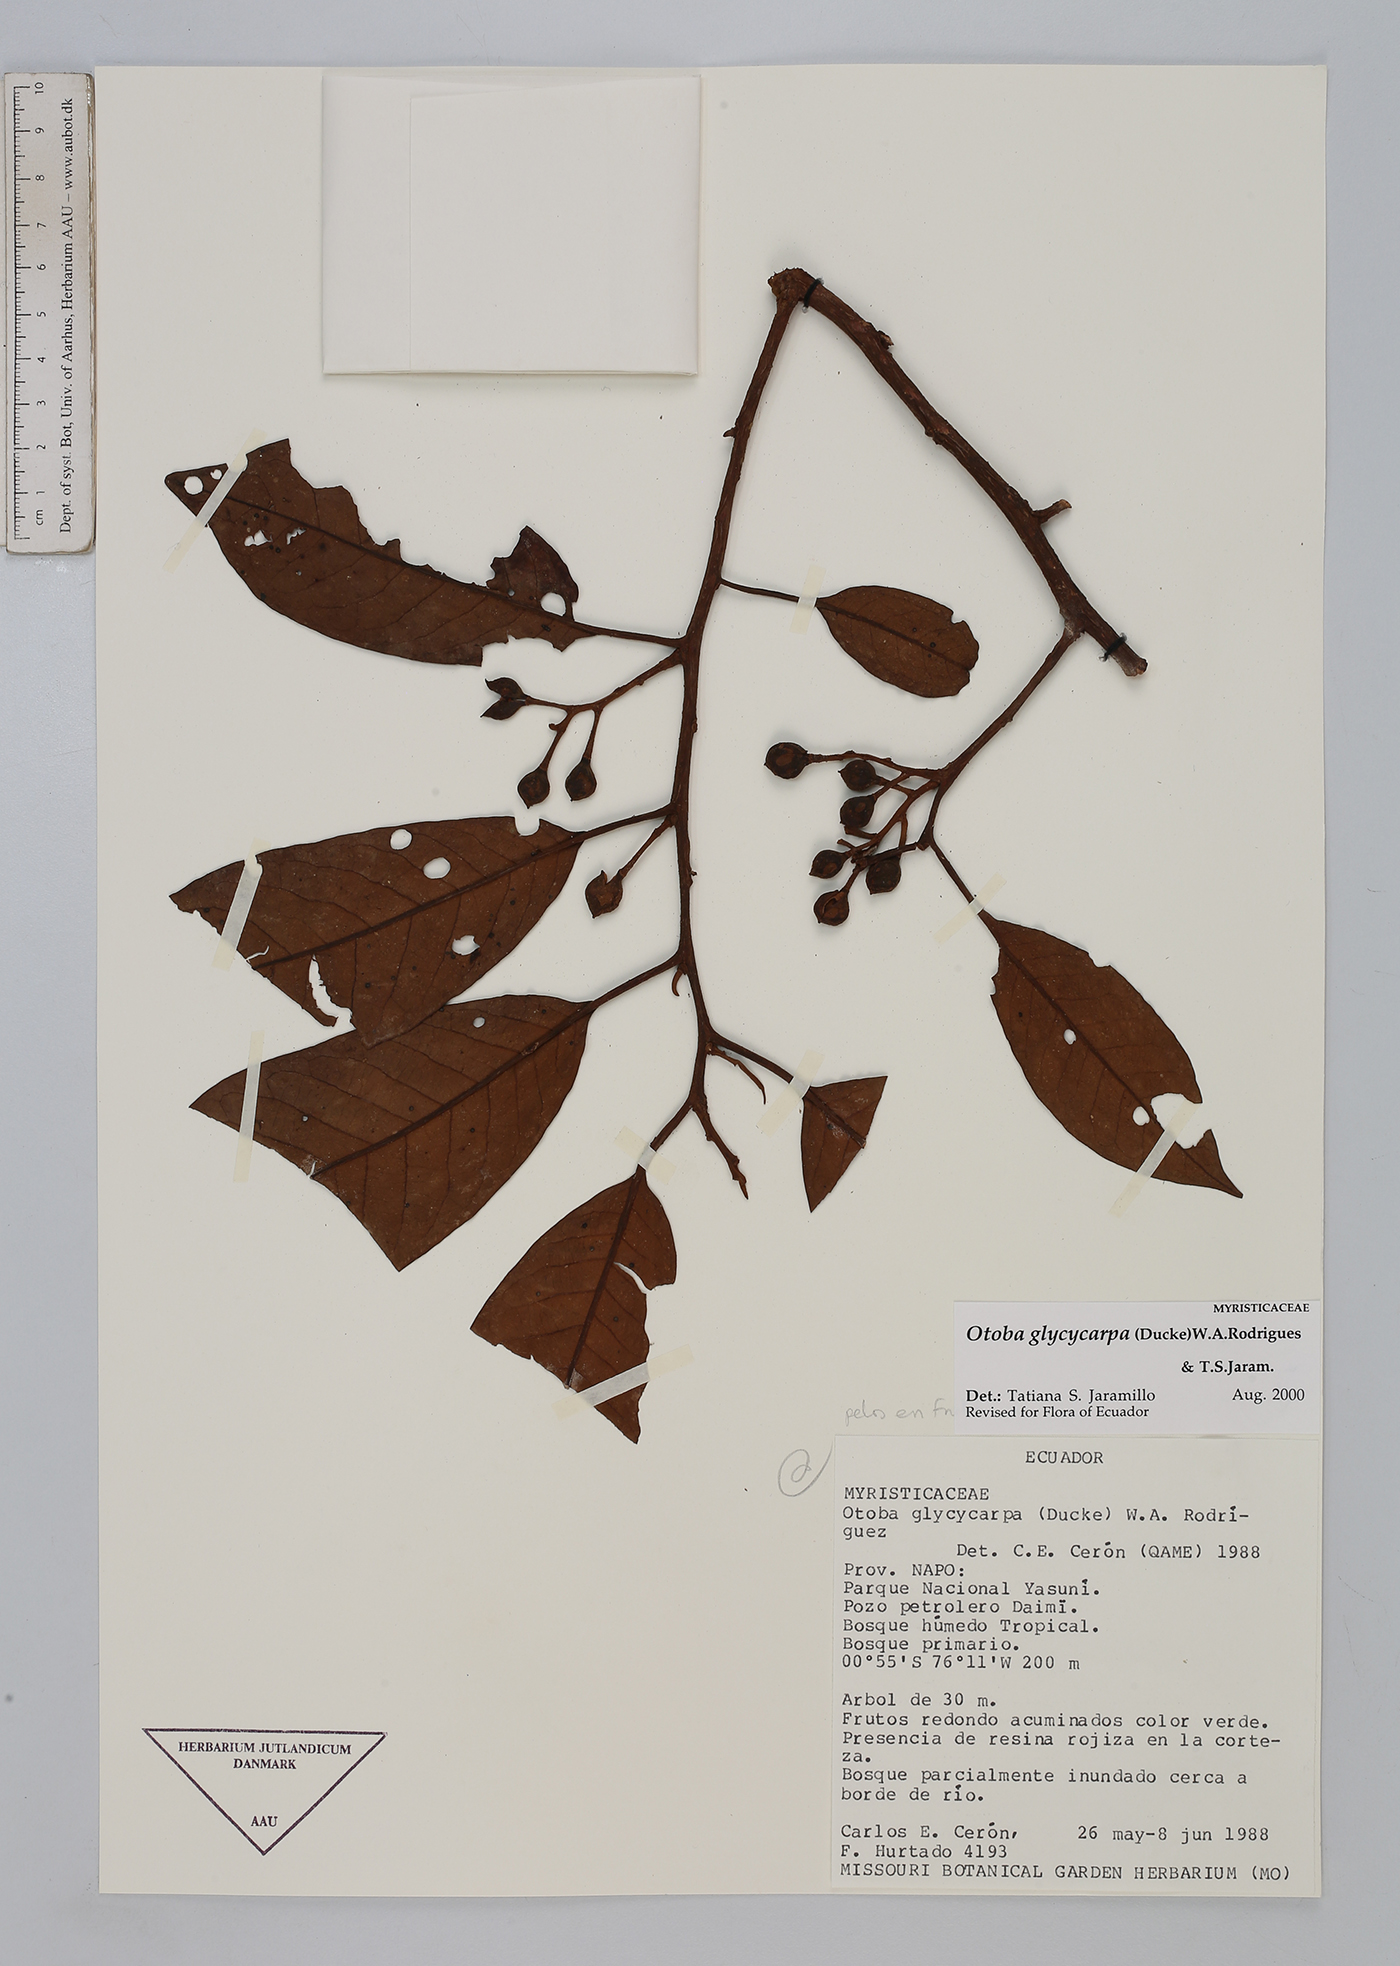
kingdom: Plantae
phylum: Tracheophyta
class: Magnoliopsida
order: Magnoliales
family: Myristicaceae
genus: Otoba
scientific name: Otoba glycycarpa
